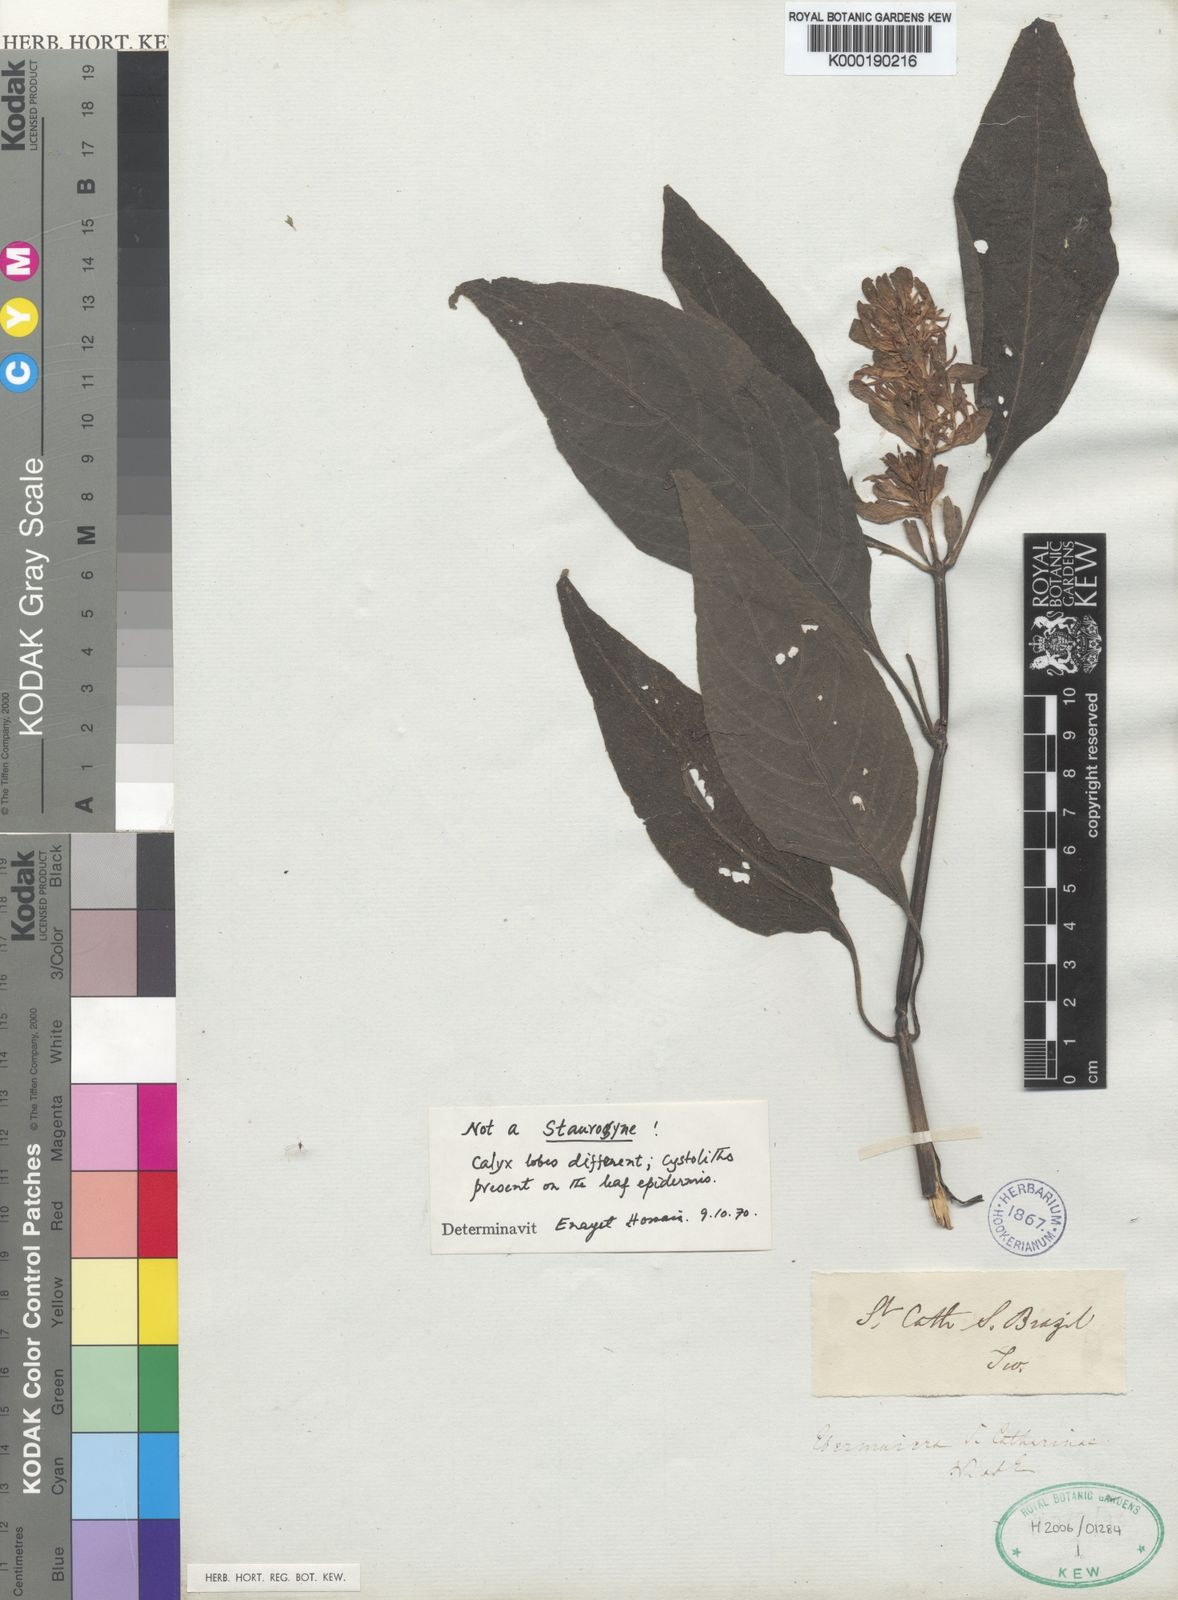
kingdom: Plantae
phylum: Tracheophyta
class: Magnoliopsida
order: Lamiales
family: Acanthaceae
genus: Staurogyne
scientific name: Staurogyne
